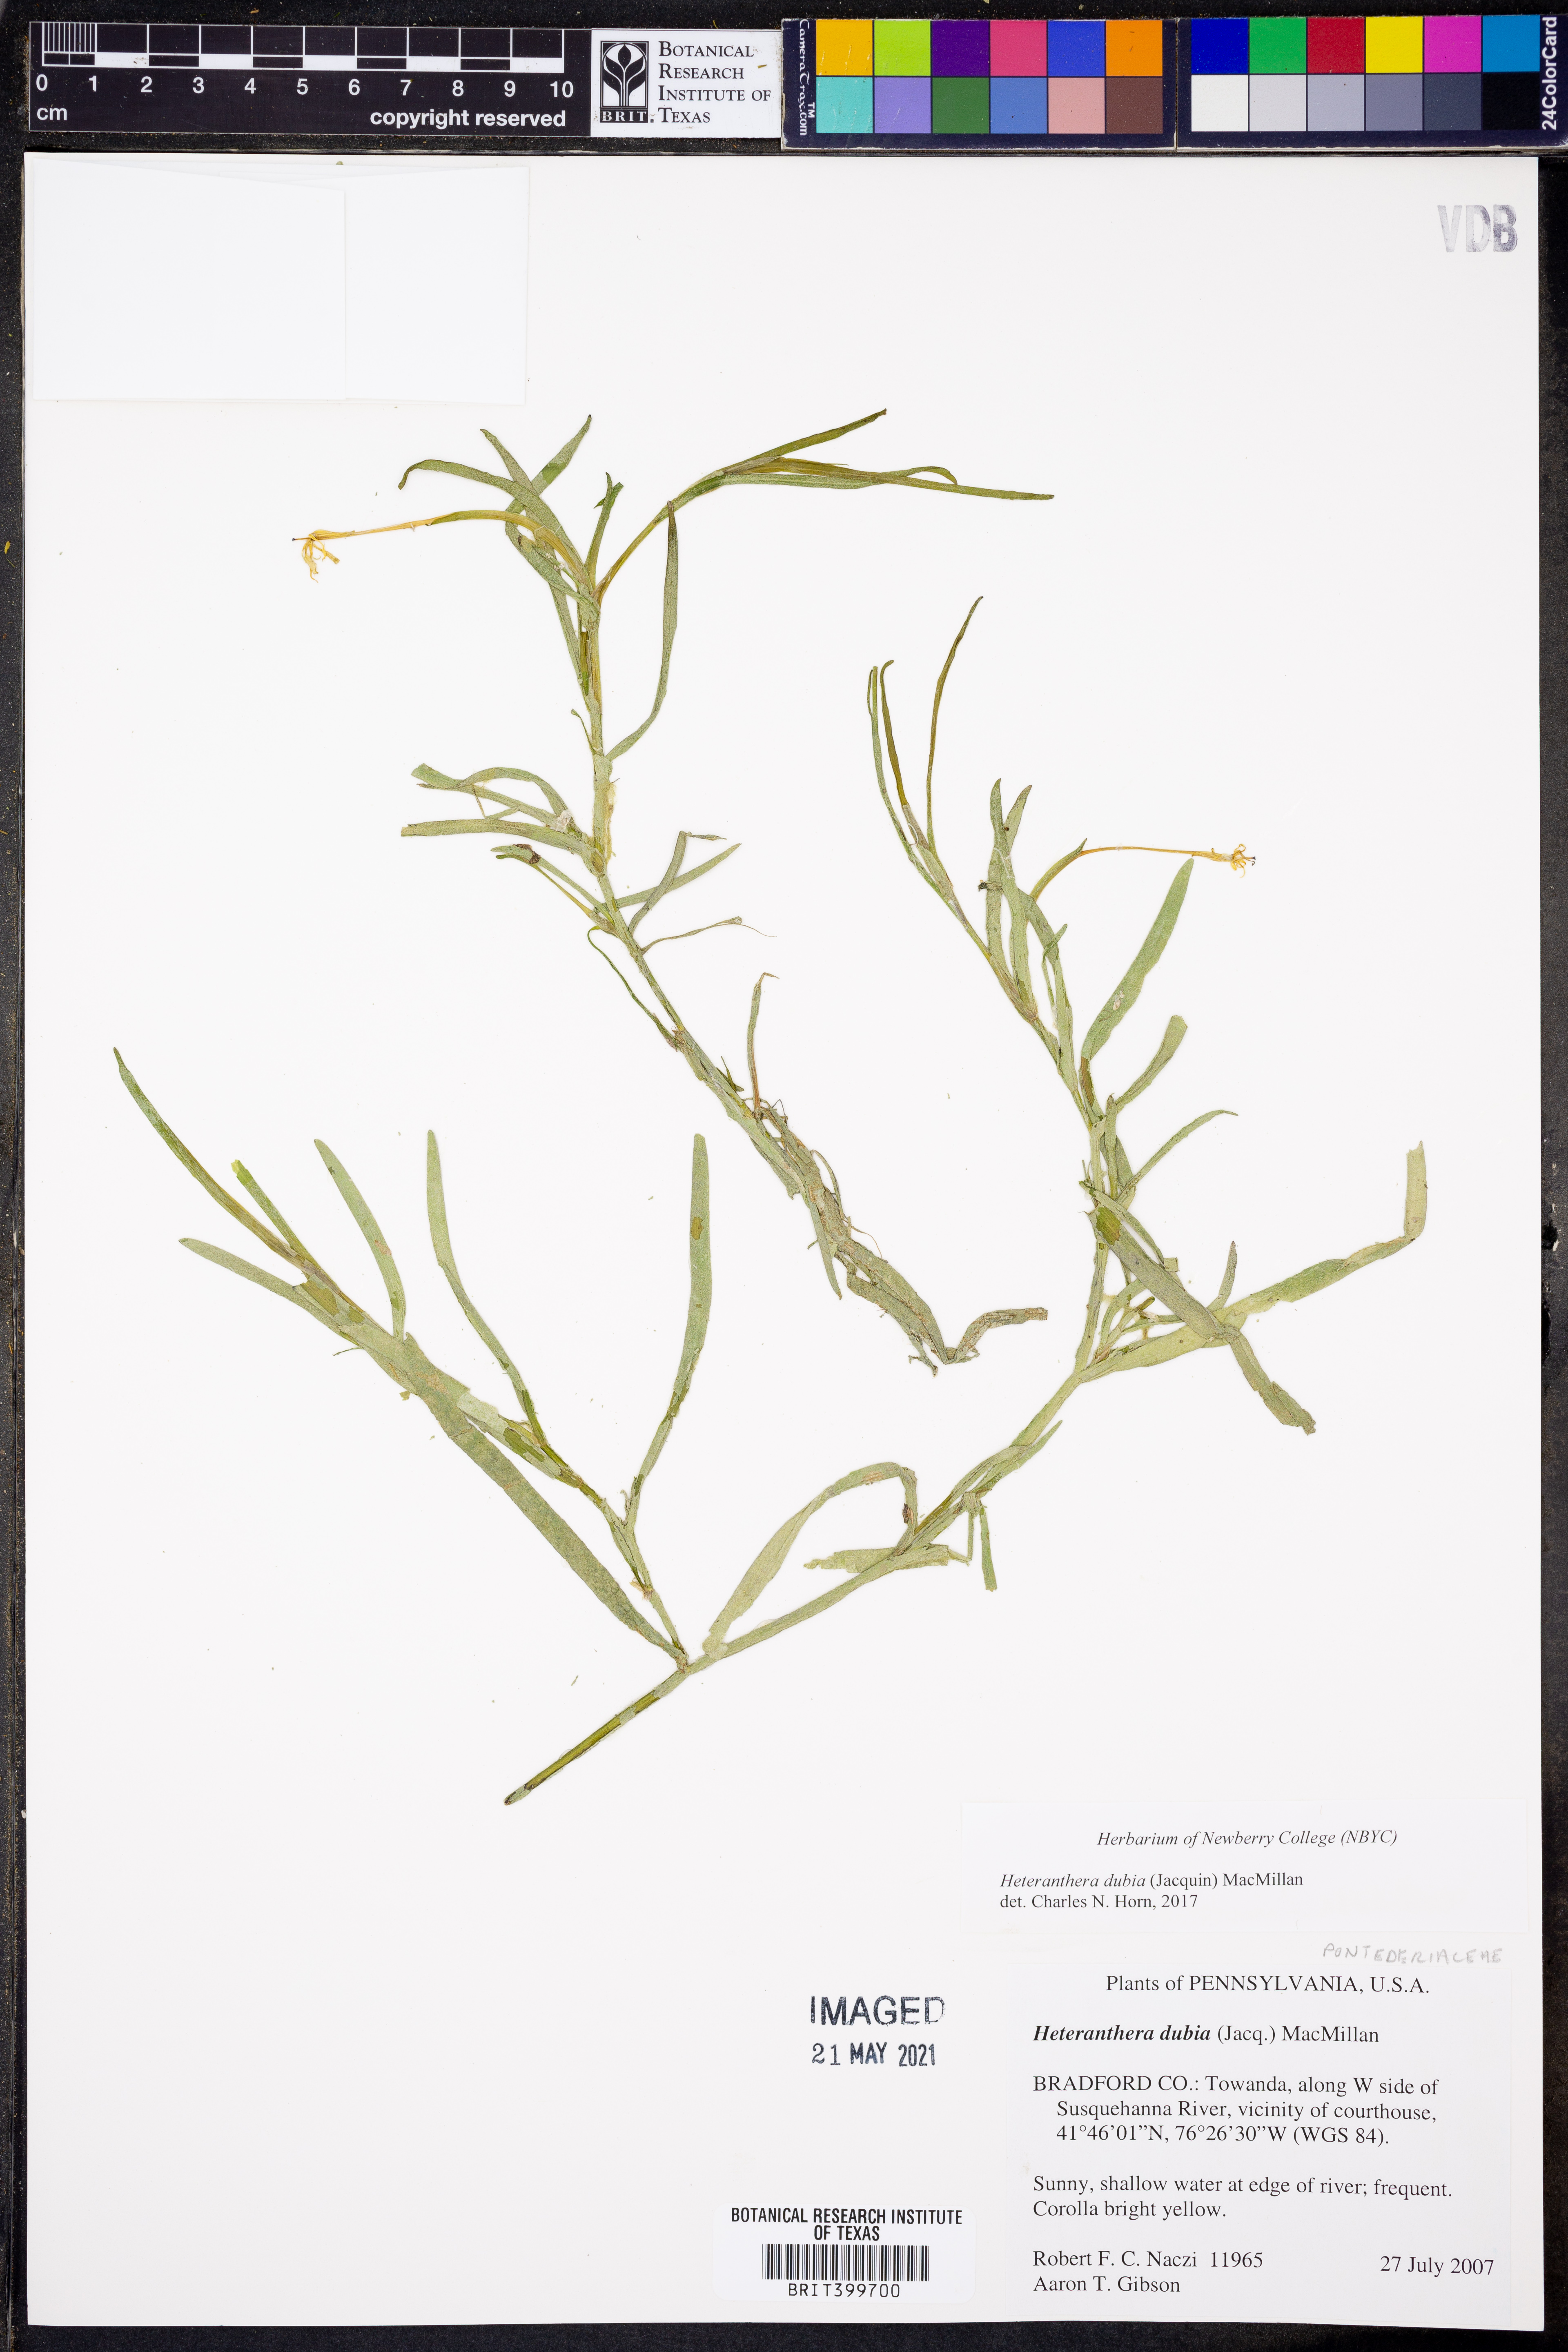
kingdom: Plantae
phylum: Tracheophyta
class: Liliopsida
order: Commelinales
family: Pontederiaceae
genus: Heteranthera
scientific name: Heteranthera dubia
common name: Grass-leaved mud plantain
